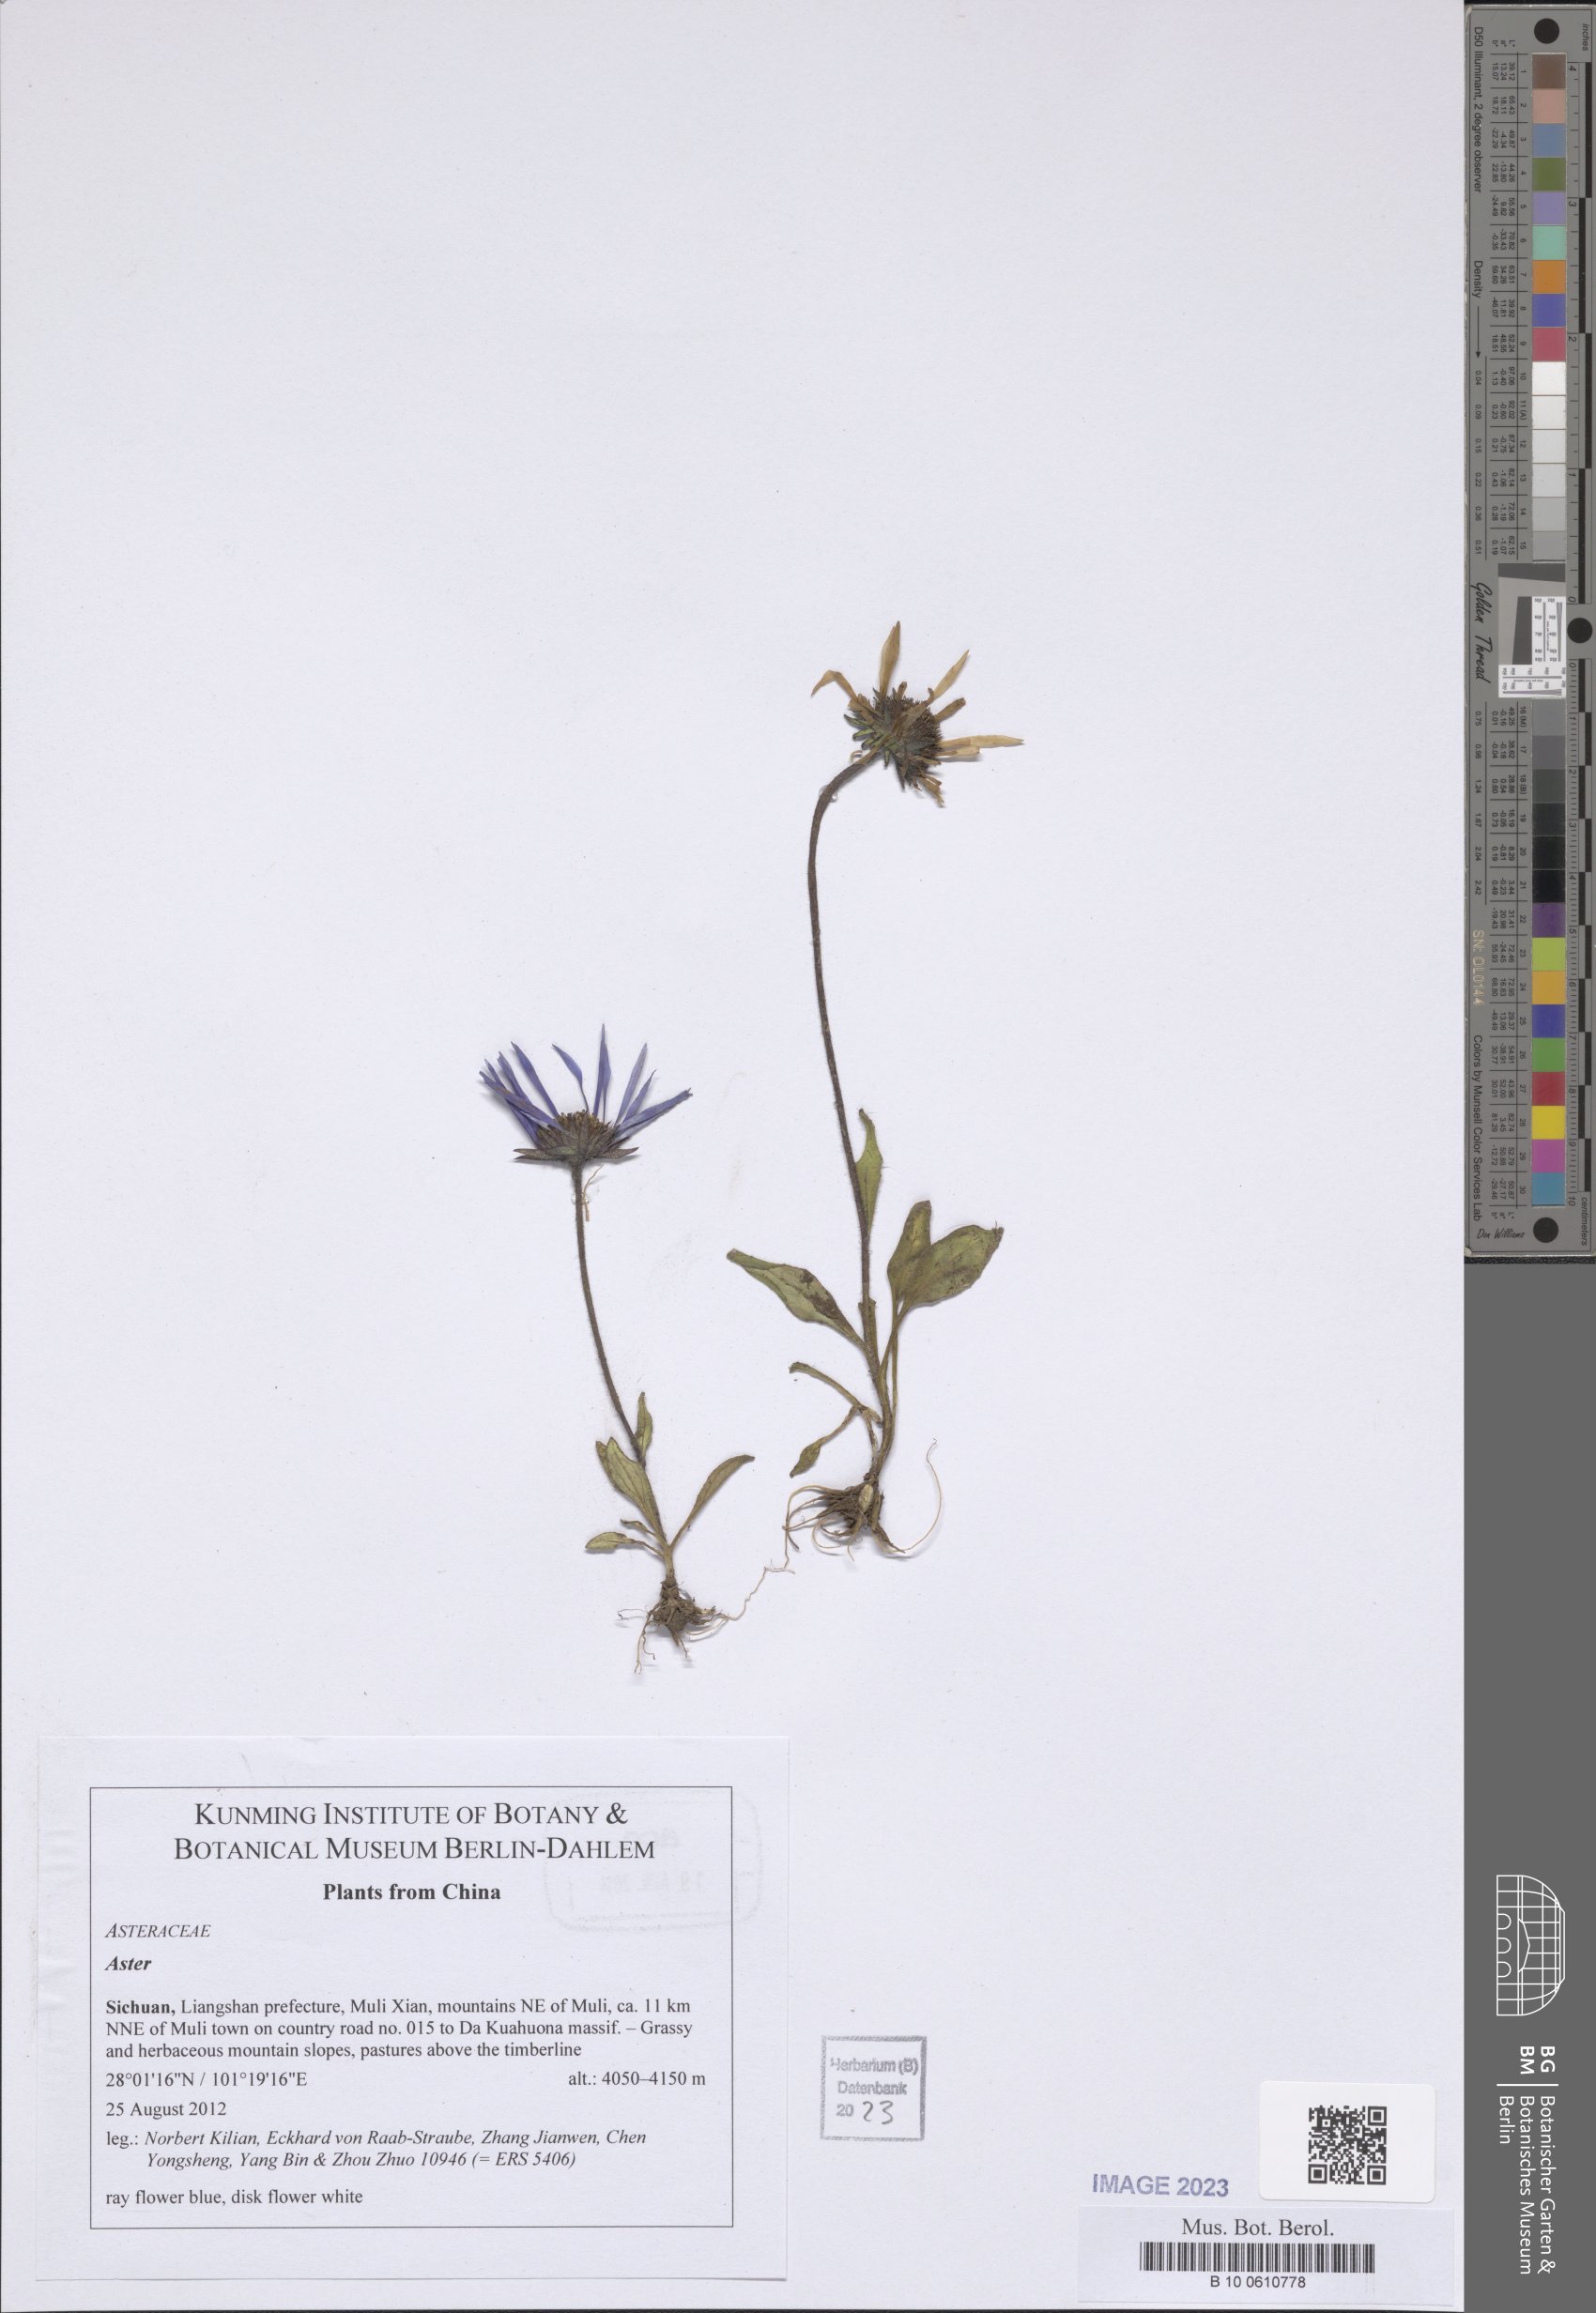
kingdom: Plantae
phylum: Tracheophyta
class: Magnoliopsida
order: Asterales
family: Asteraceae
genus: Aster
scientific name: Aster
